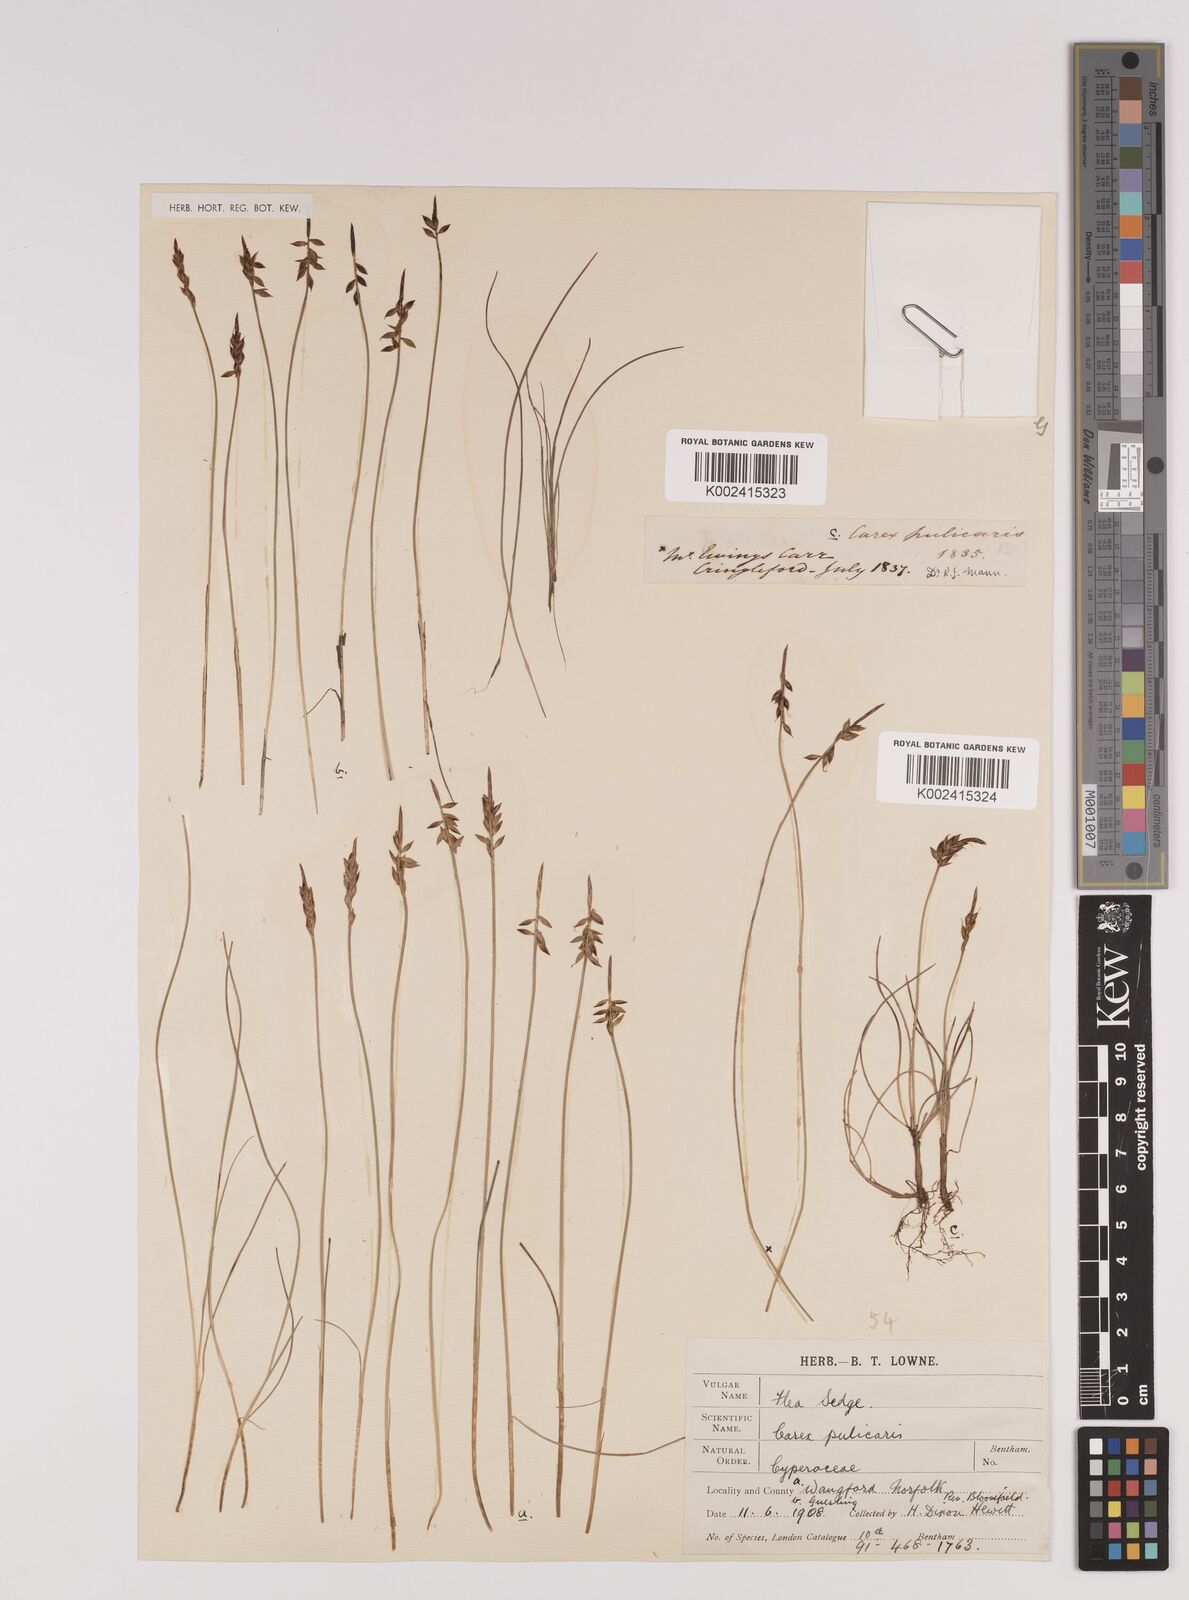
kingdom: Plantae
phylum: Tracheophyta
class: Liliopsida
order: Poales
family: Cyperaceae
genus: Carex
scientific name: Carex pulicaris
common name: Flea sedge
